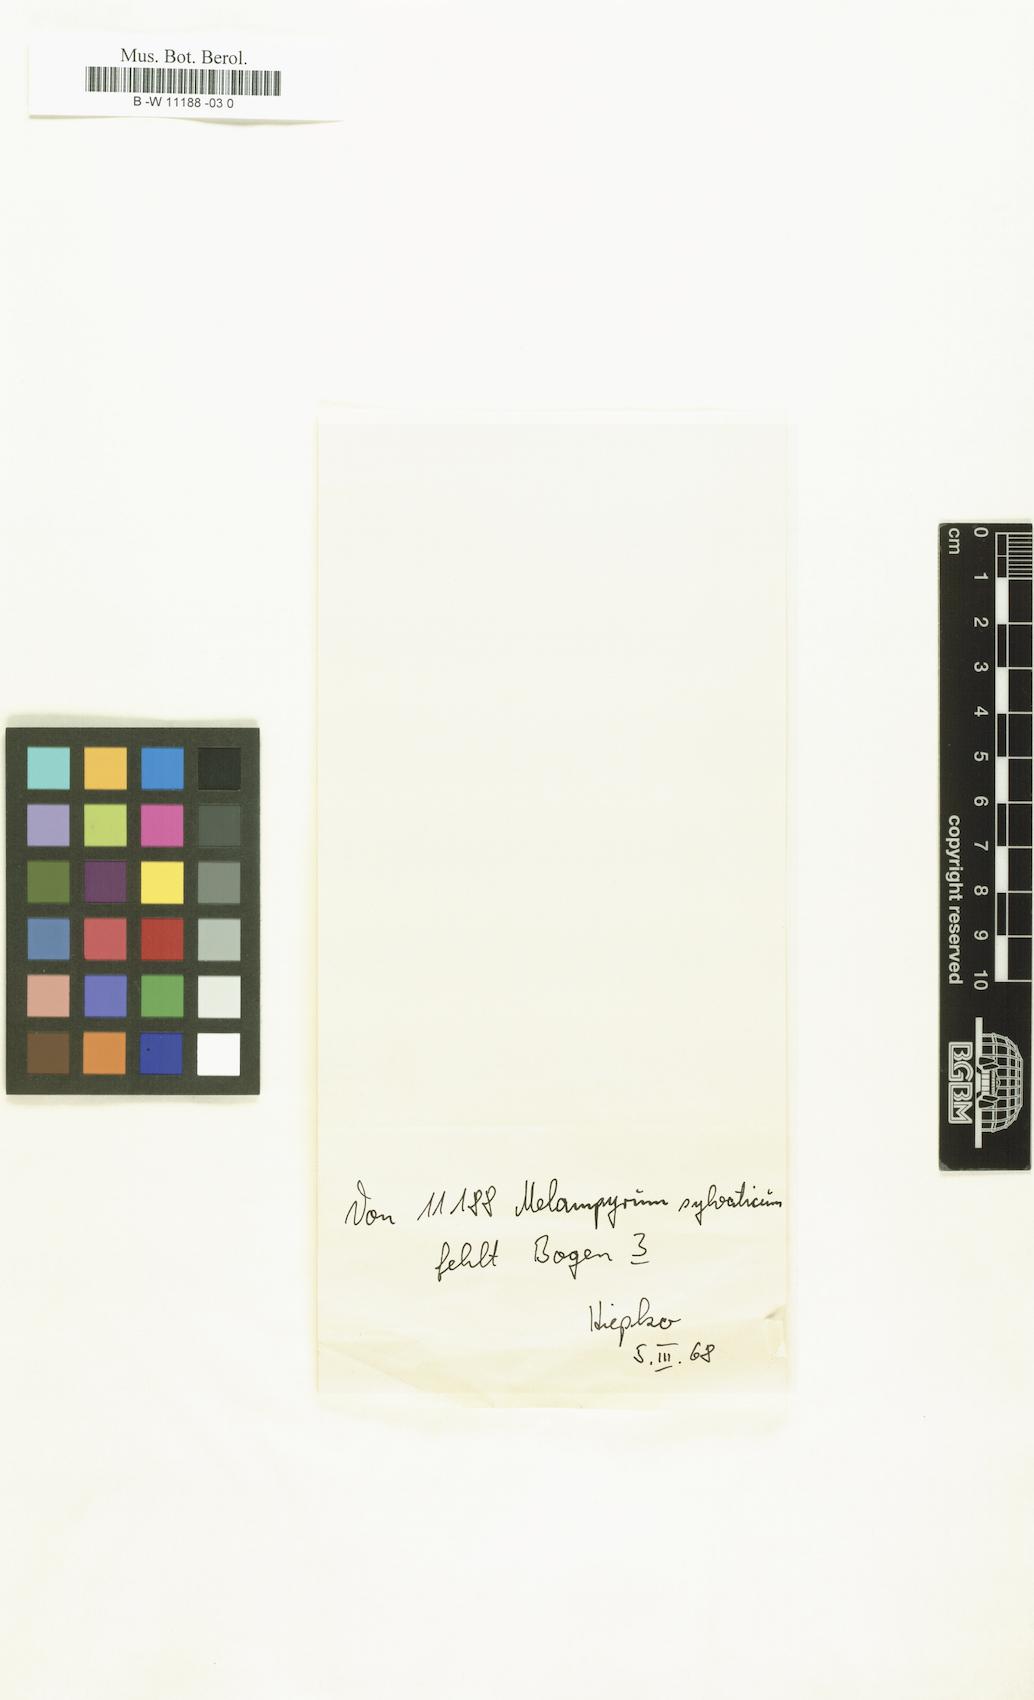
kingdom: Plantae
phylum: Tracheophyta
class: Magnoliopsida
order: Lamiales
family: Orobanchaceae
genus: Melampyrum
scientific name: Melampyrum sylvaticum
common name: Small cow-wheat
